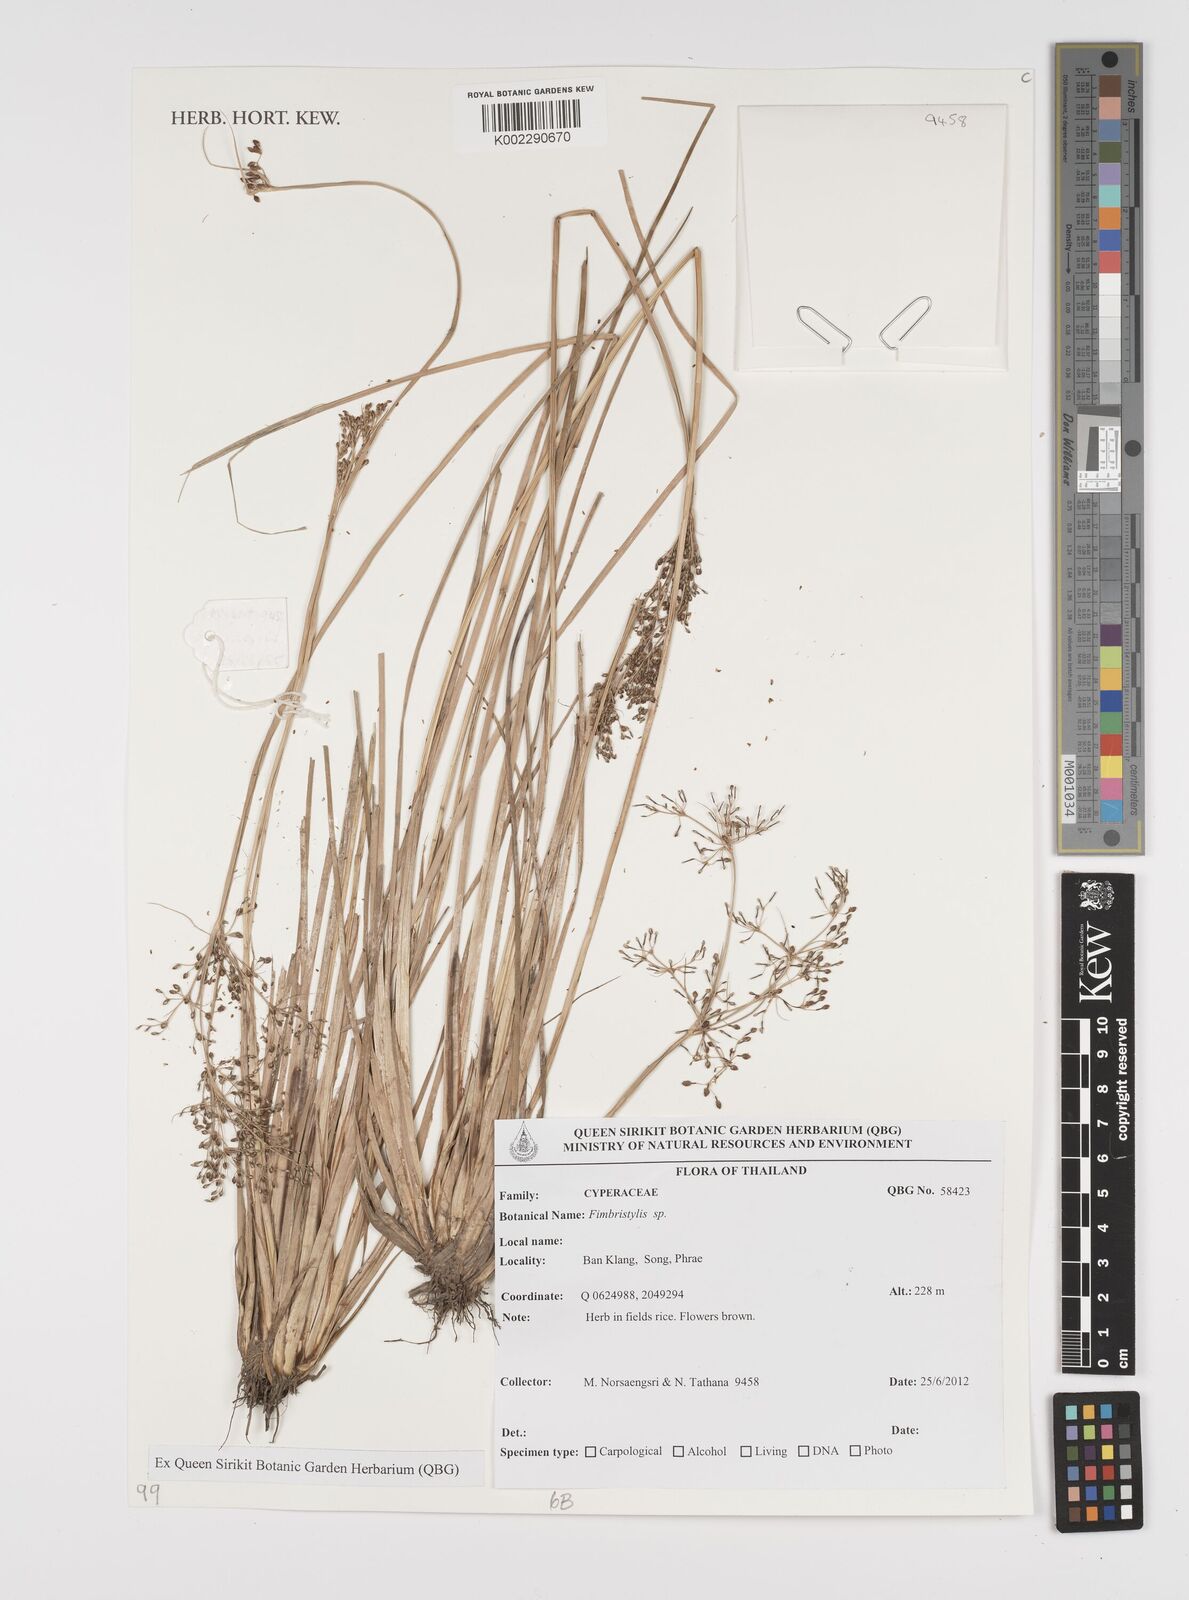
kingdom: Plantae
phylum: Tracheophyta
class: Liliopsida
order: Poales
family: Cyperaceae
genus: Fimbristylis
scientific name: Fimbristylis
